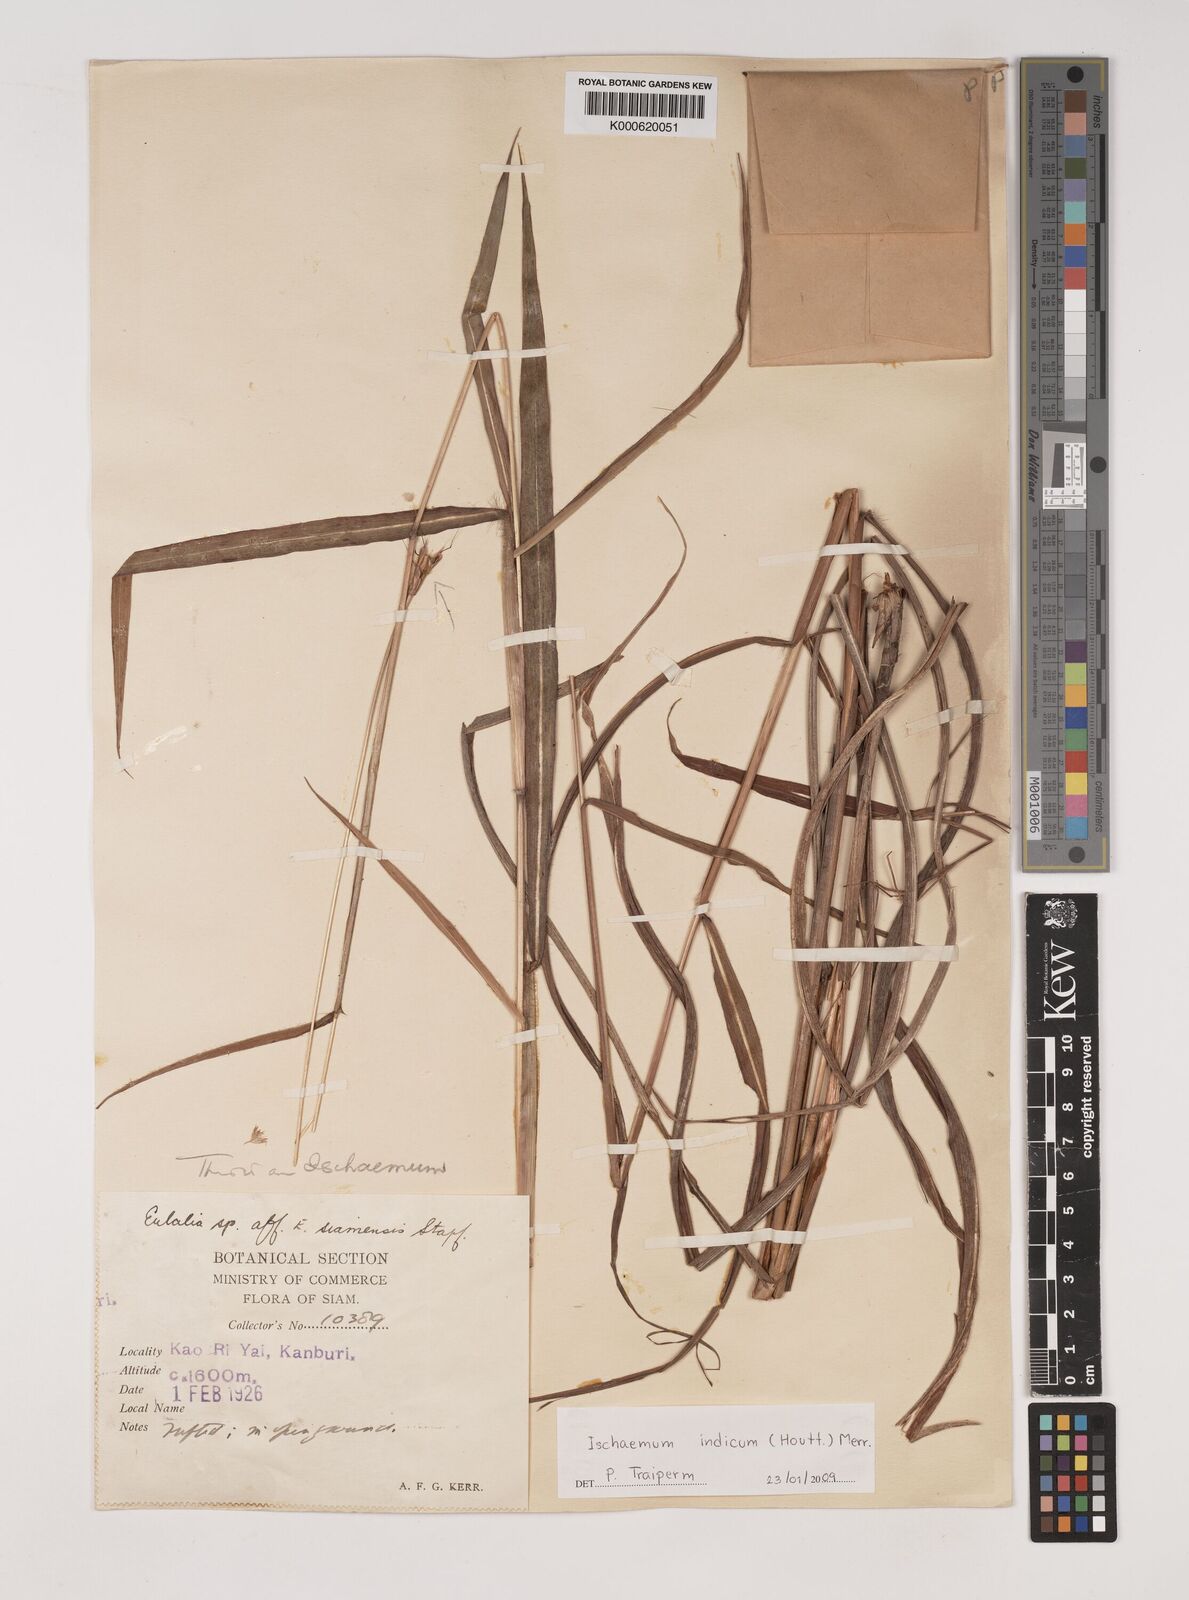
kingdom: Plantae
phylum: Tracheophyta
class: Liliopsida
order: Poales
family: Poaceae
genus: Polytrias
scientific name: Polytrias indica
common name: Indian murainagrass
